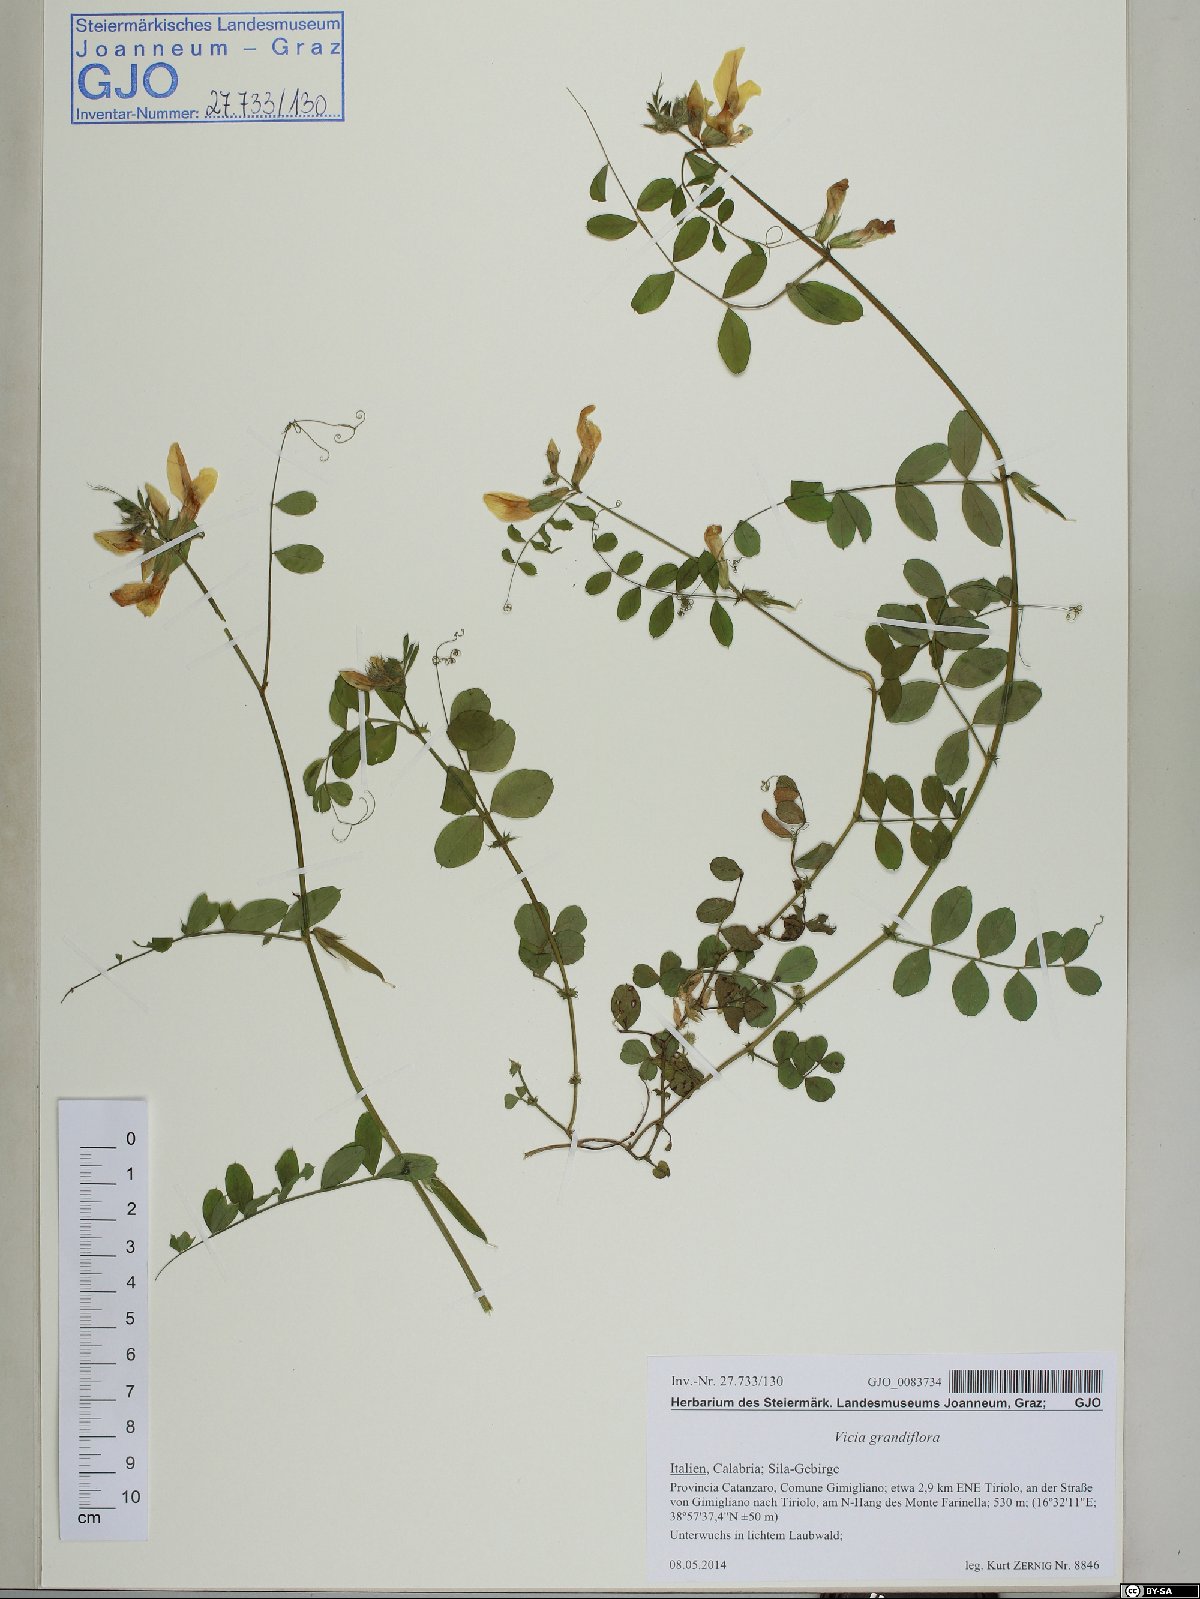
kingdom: Plantae
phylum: Tracheophyta
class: Magnoliopsida
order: Fabales
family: Fabaceae
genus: Vicia
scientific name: Vicia grandiflora
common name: Large yellow vetch
